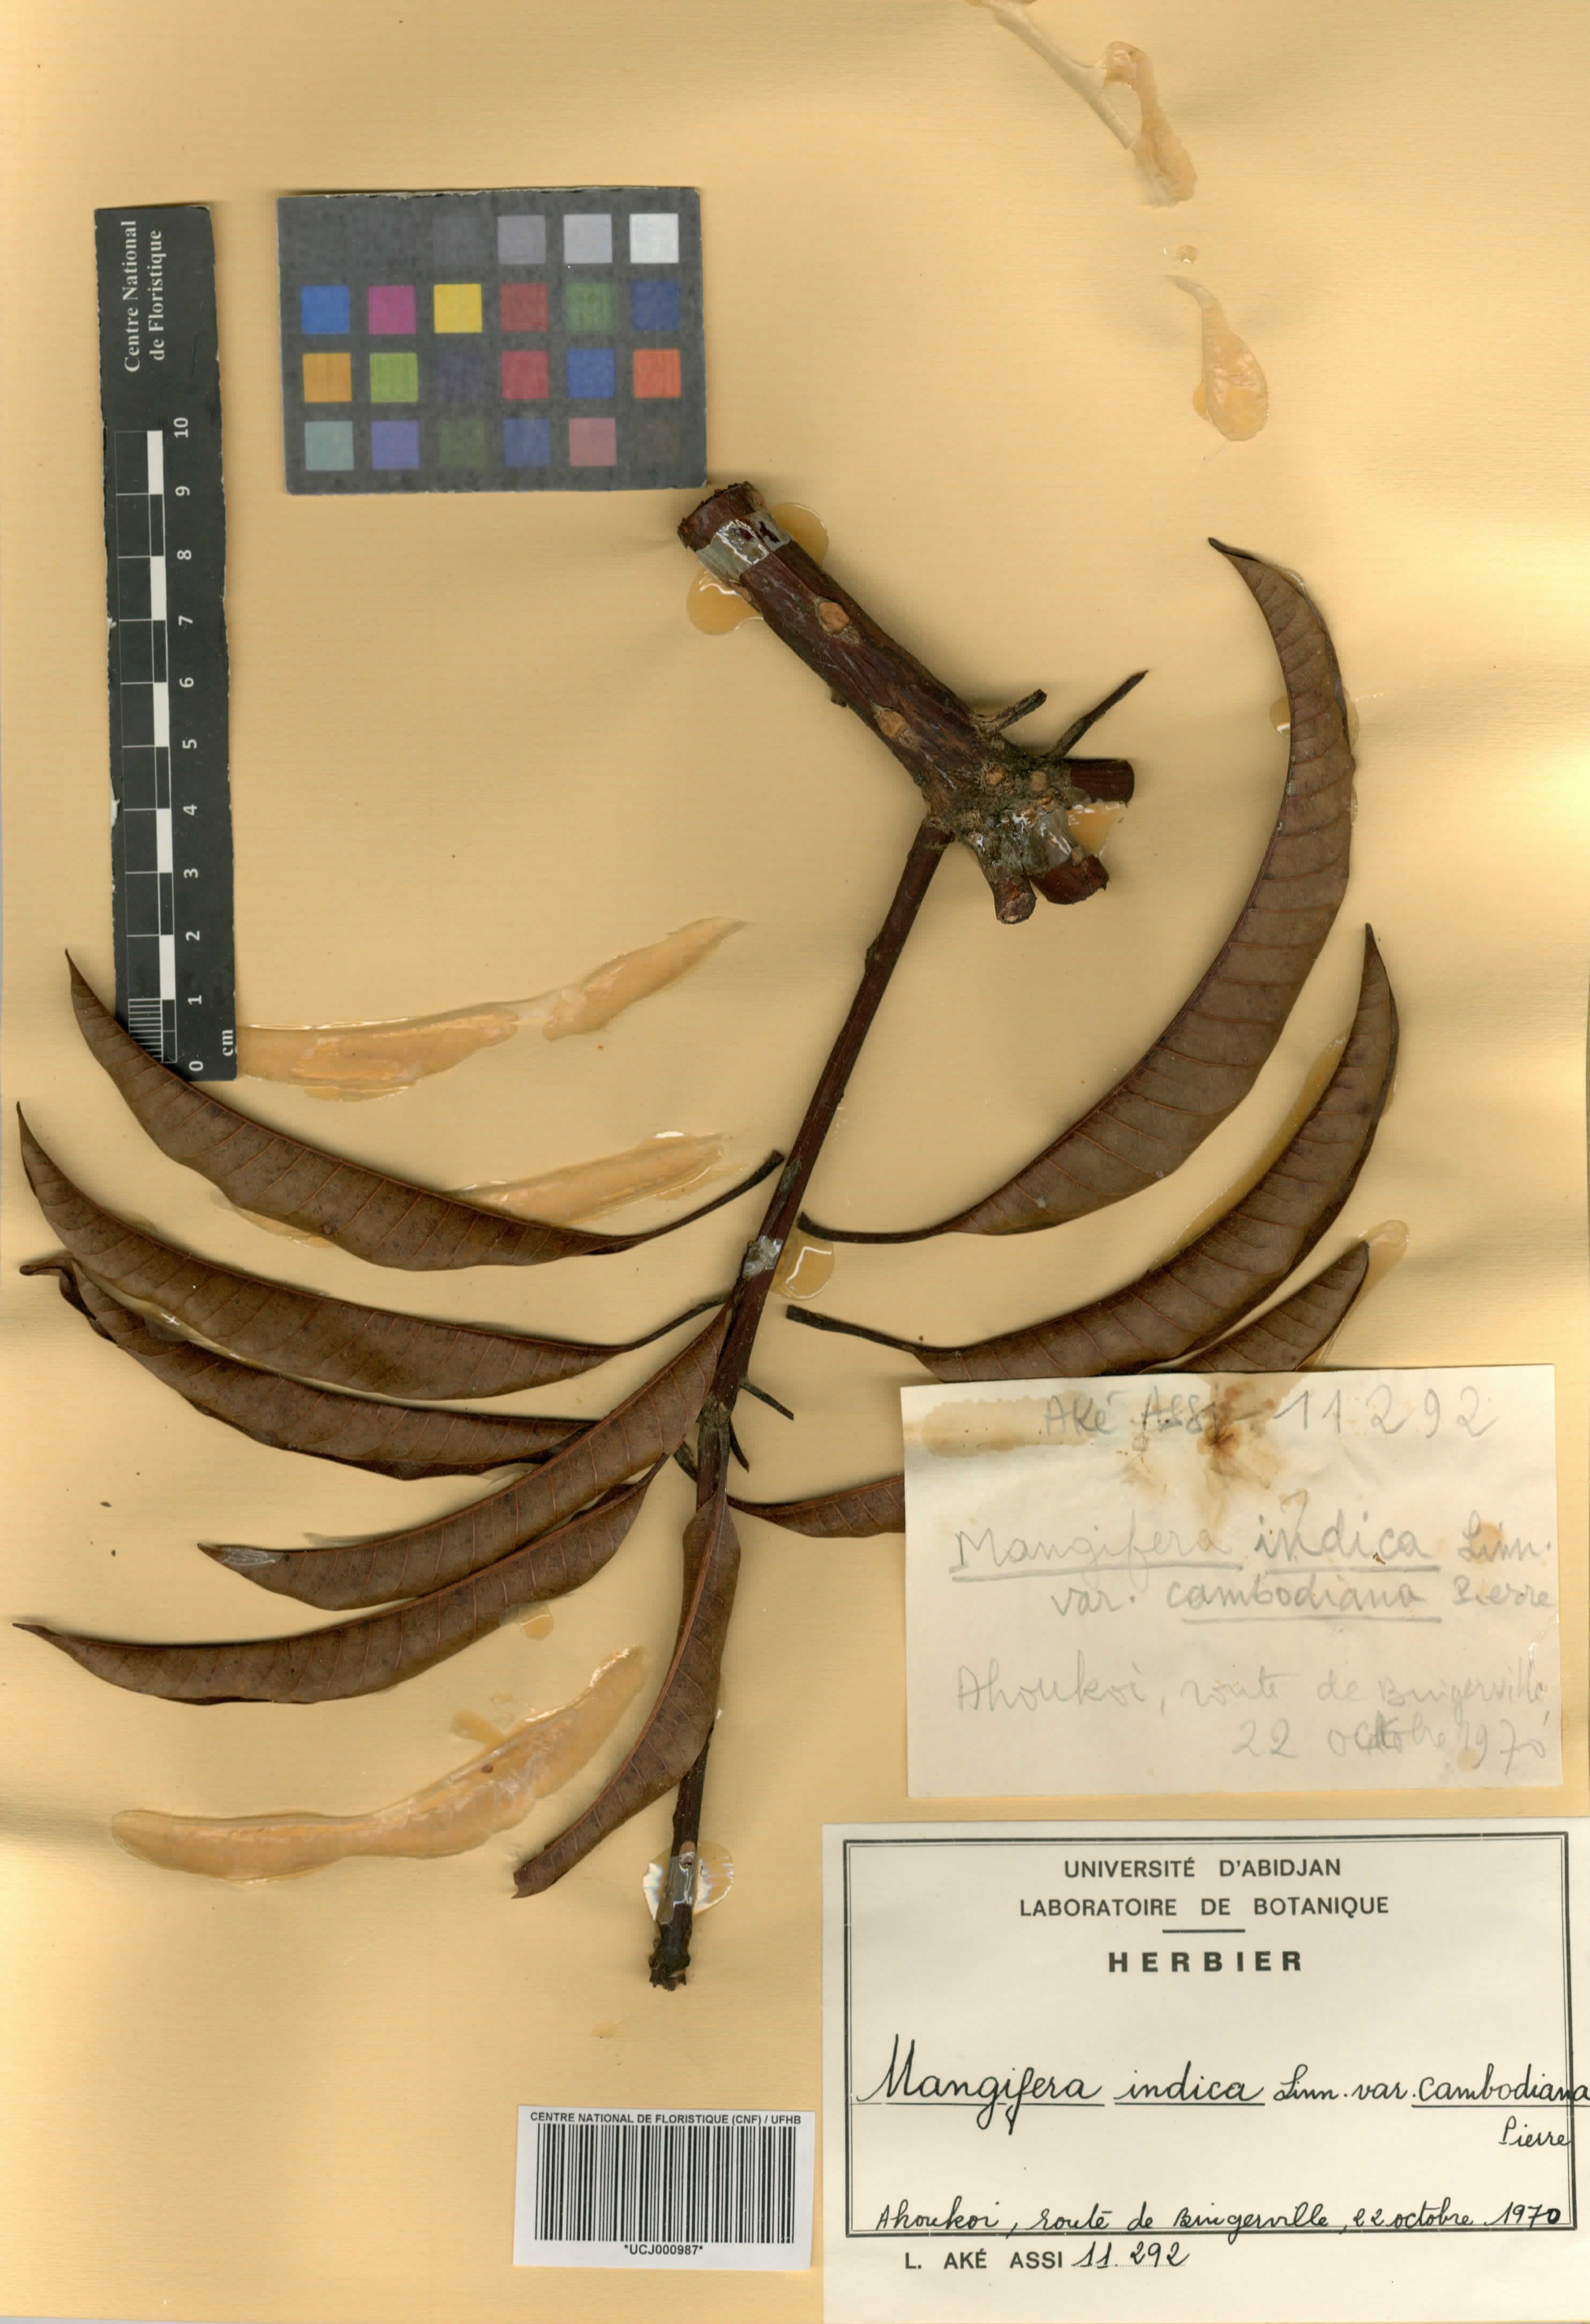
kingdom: Plantae
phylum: Tracheophyta
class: Magnoliopsida
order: Sapindales
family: Anacardiaceae
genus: Mangifera
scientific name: Mangifera indica
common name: Mango
